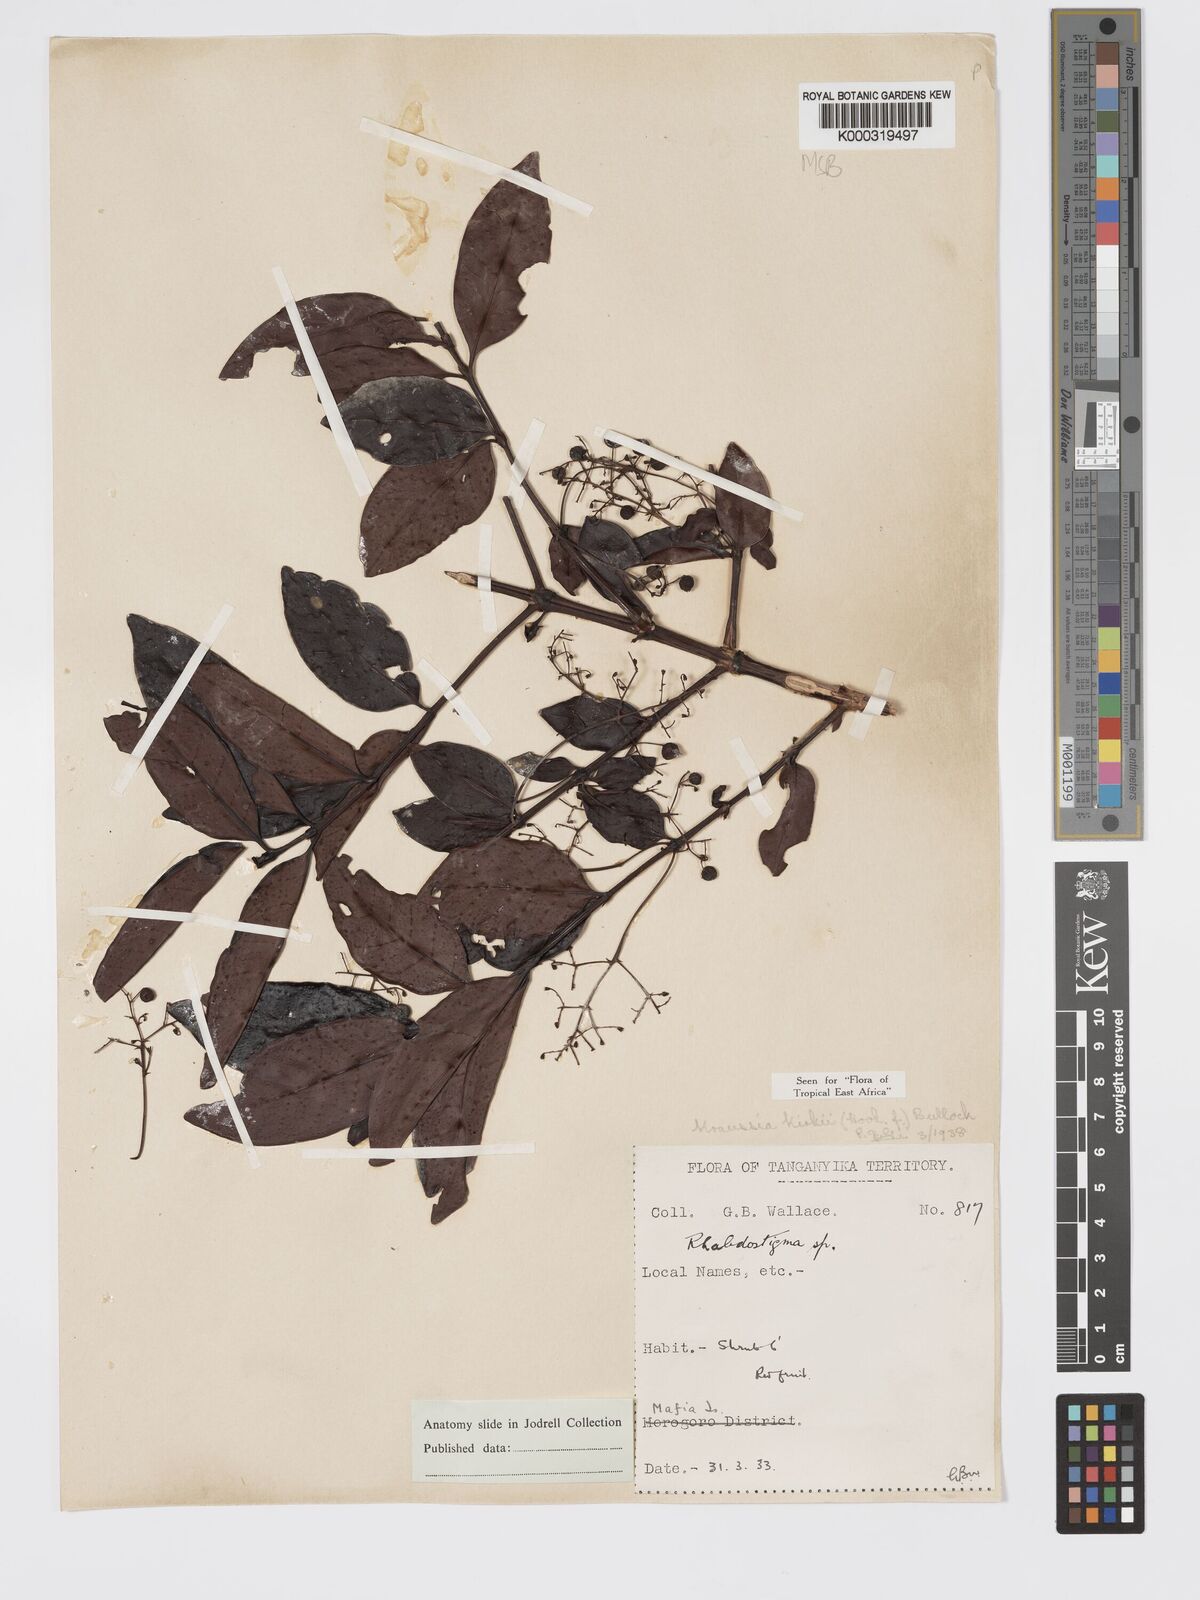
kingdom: Plantae
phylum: Tracheophyta
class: Magnoliopsida
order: Gentianales
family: Rubiaceae
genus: Kraussia
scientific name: Kraussia kirkii
